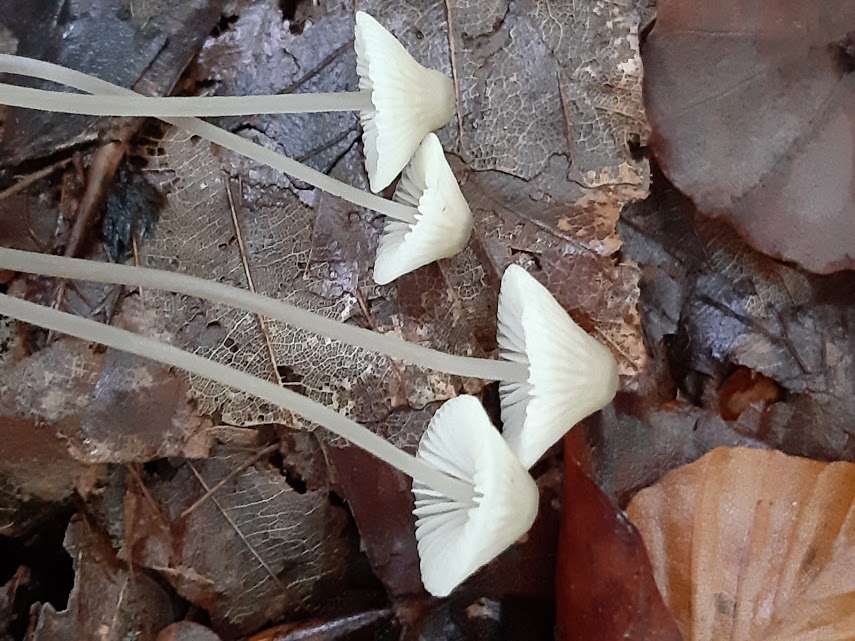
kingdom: Fungi
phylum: Basidiomycota
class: Agaricomycetes
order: Agaricales
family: Mycenaceae
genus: Mycena
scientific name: Mycena
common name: huesvamp
